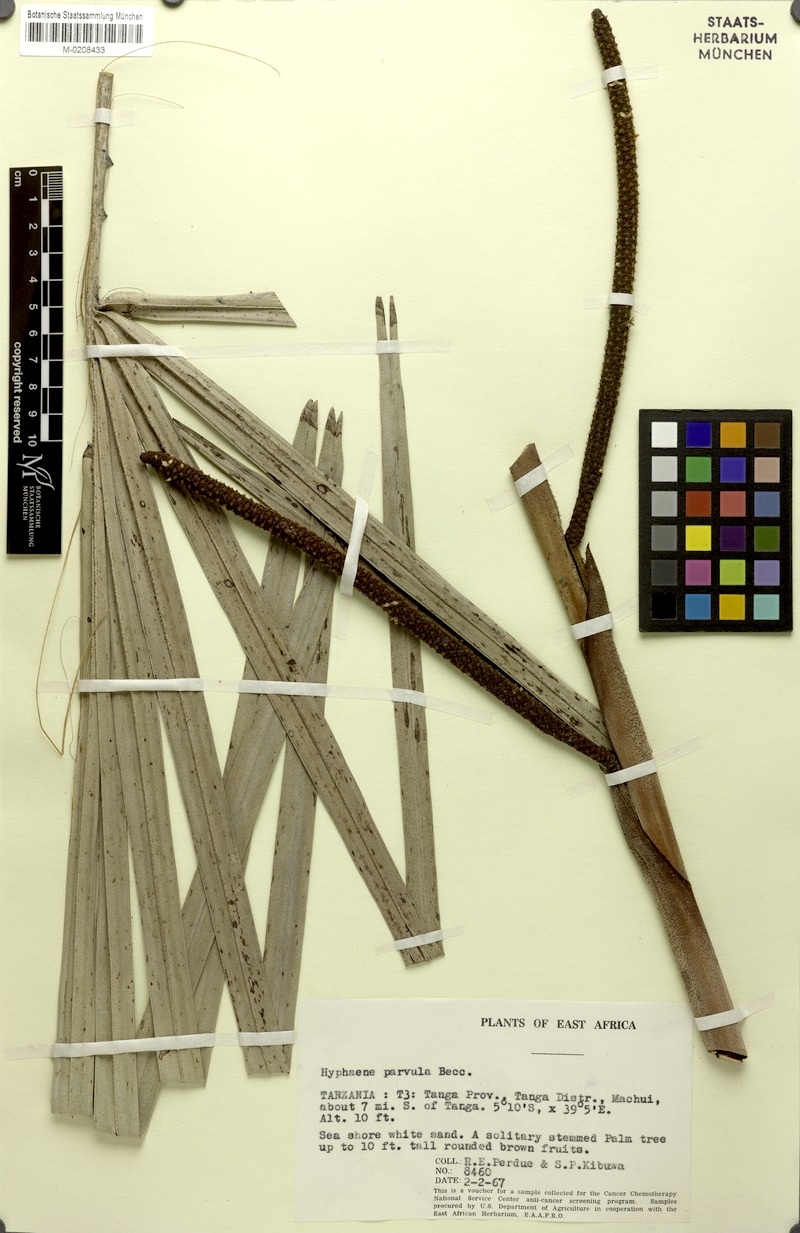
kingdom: Plantae
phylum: Tracheophyta
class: Liliopsida
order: Arecales
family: Arecaceae
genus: Hyphaene
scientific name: Hyphaene coriacea
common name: Ilala palm
